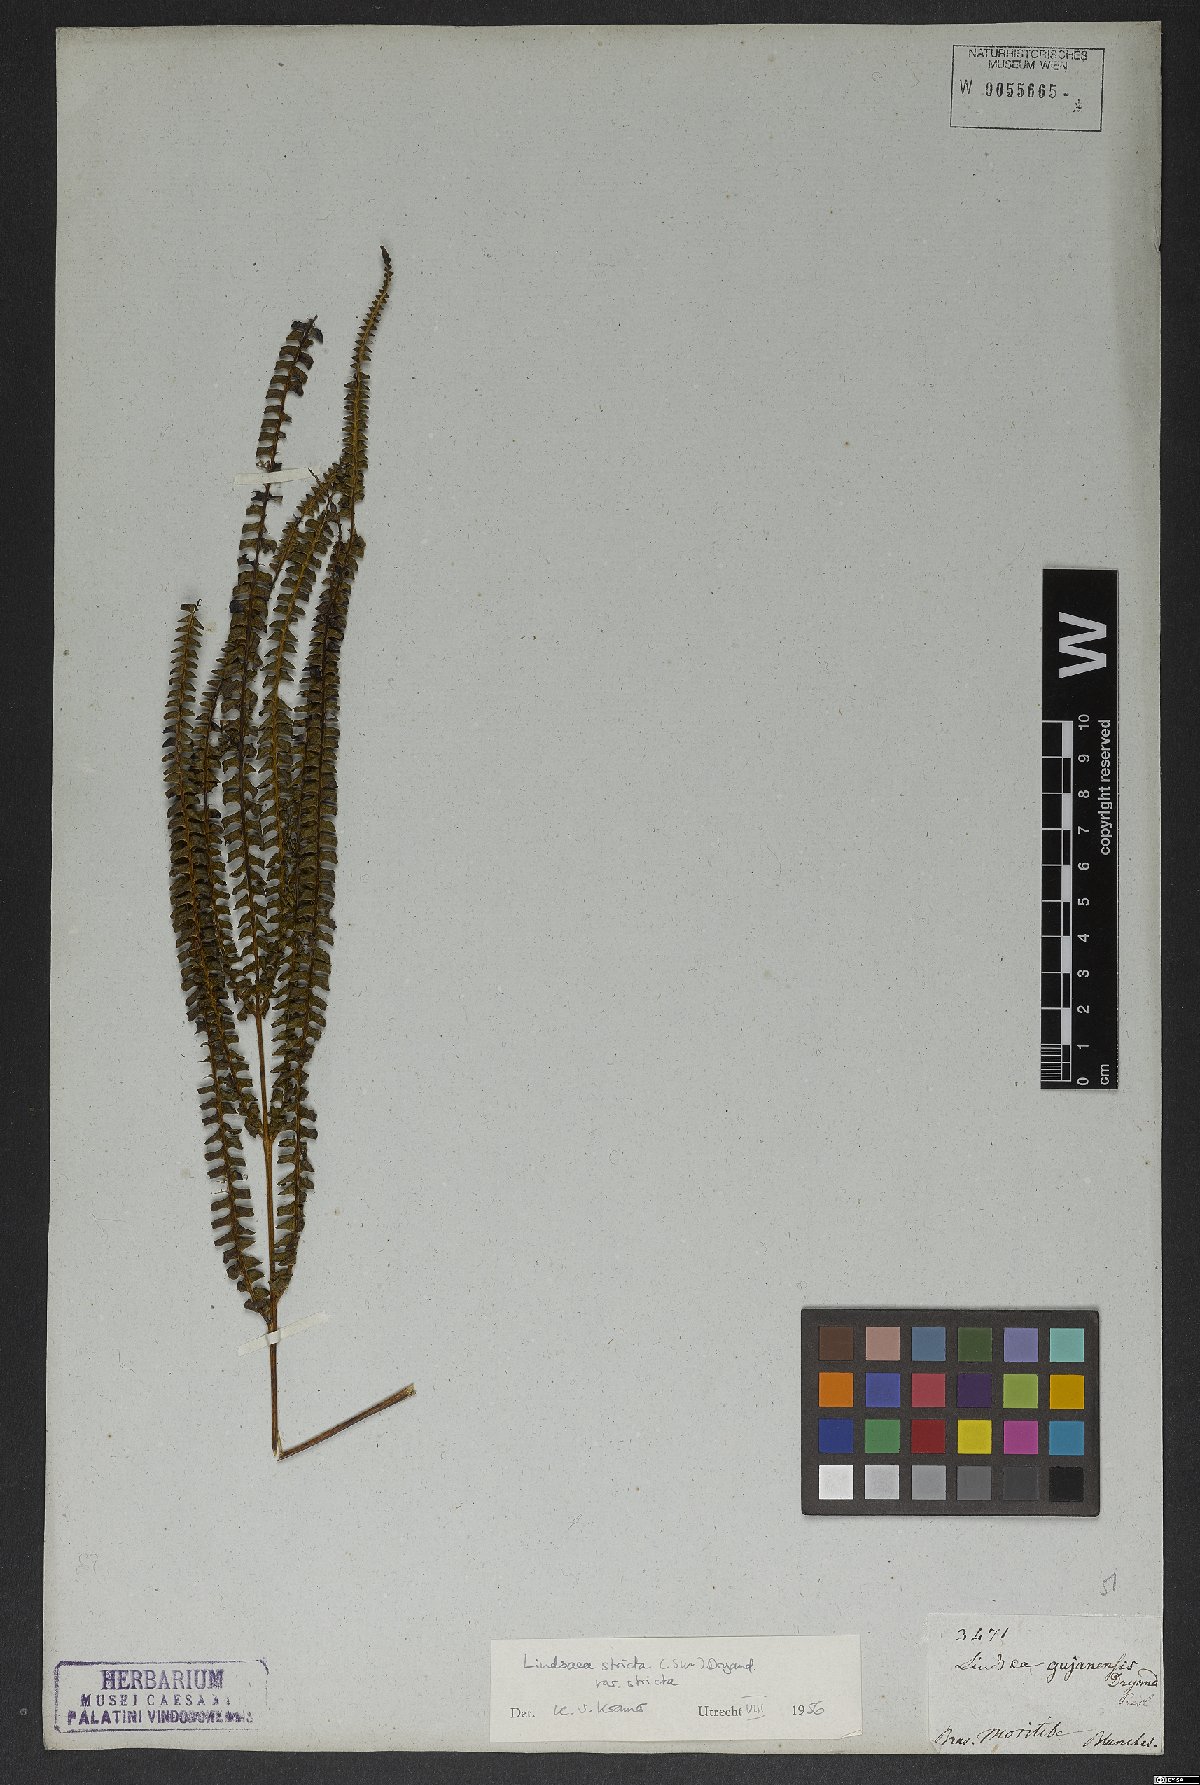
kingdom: Plantae
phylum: Tracheophyta
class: Polypodiopsida
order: Polypodiales
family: Lindsaeaceae
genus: Lindsaea
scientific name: Lindsaea stricta
